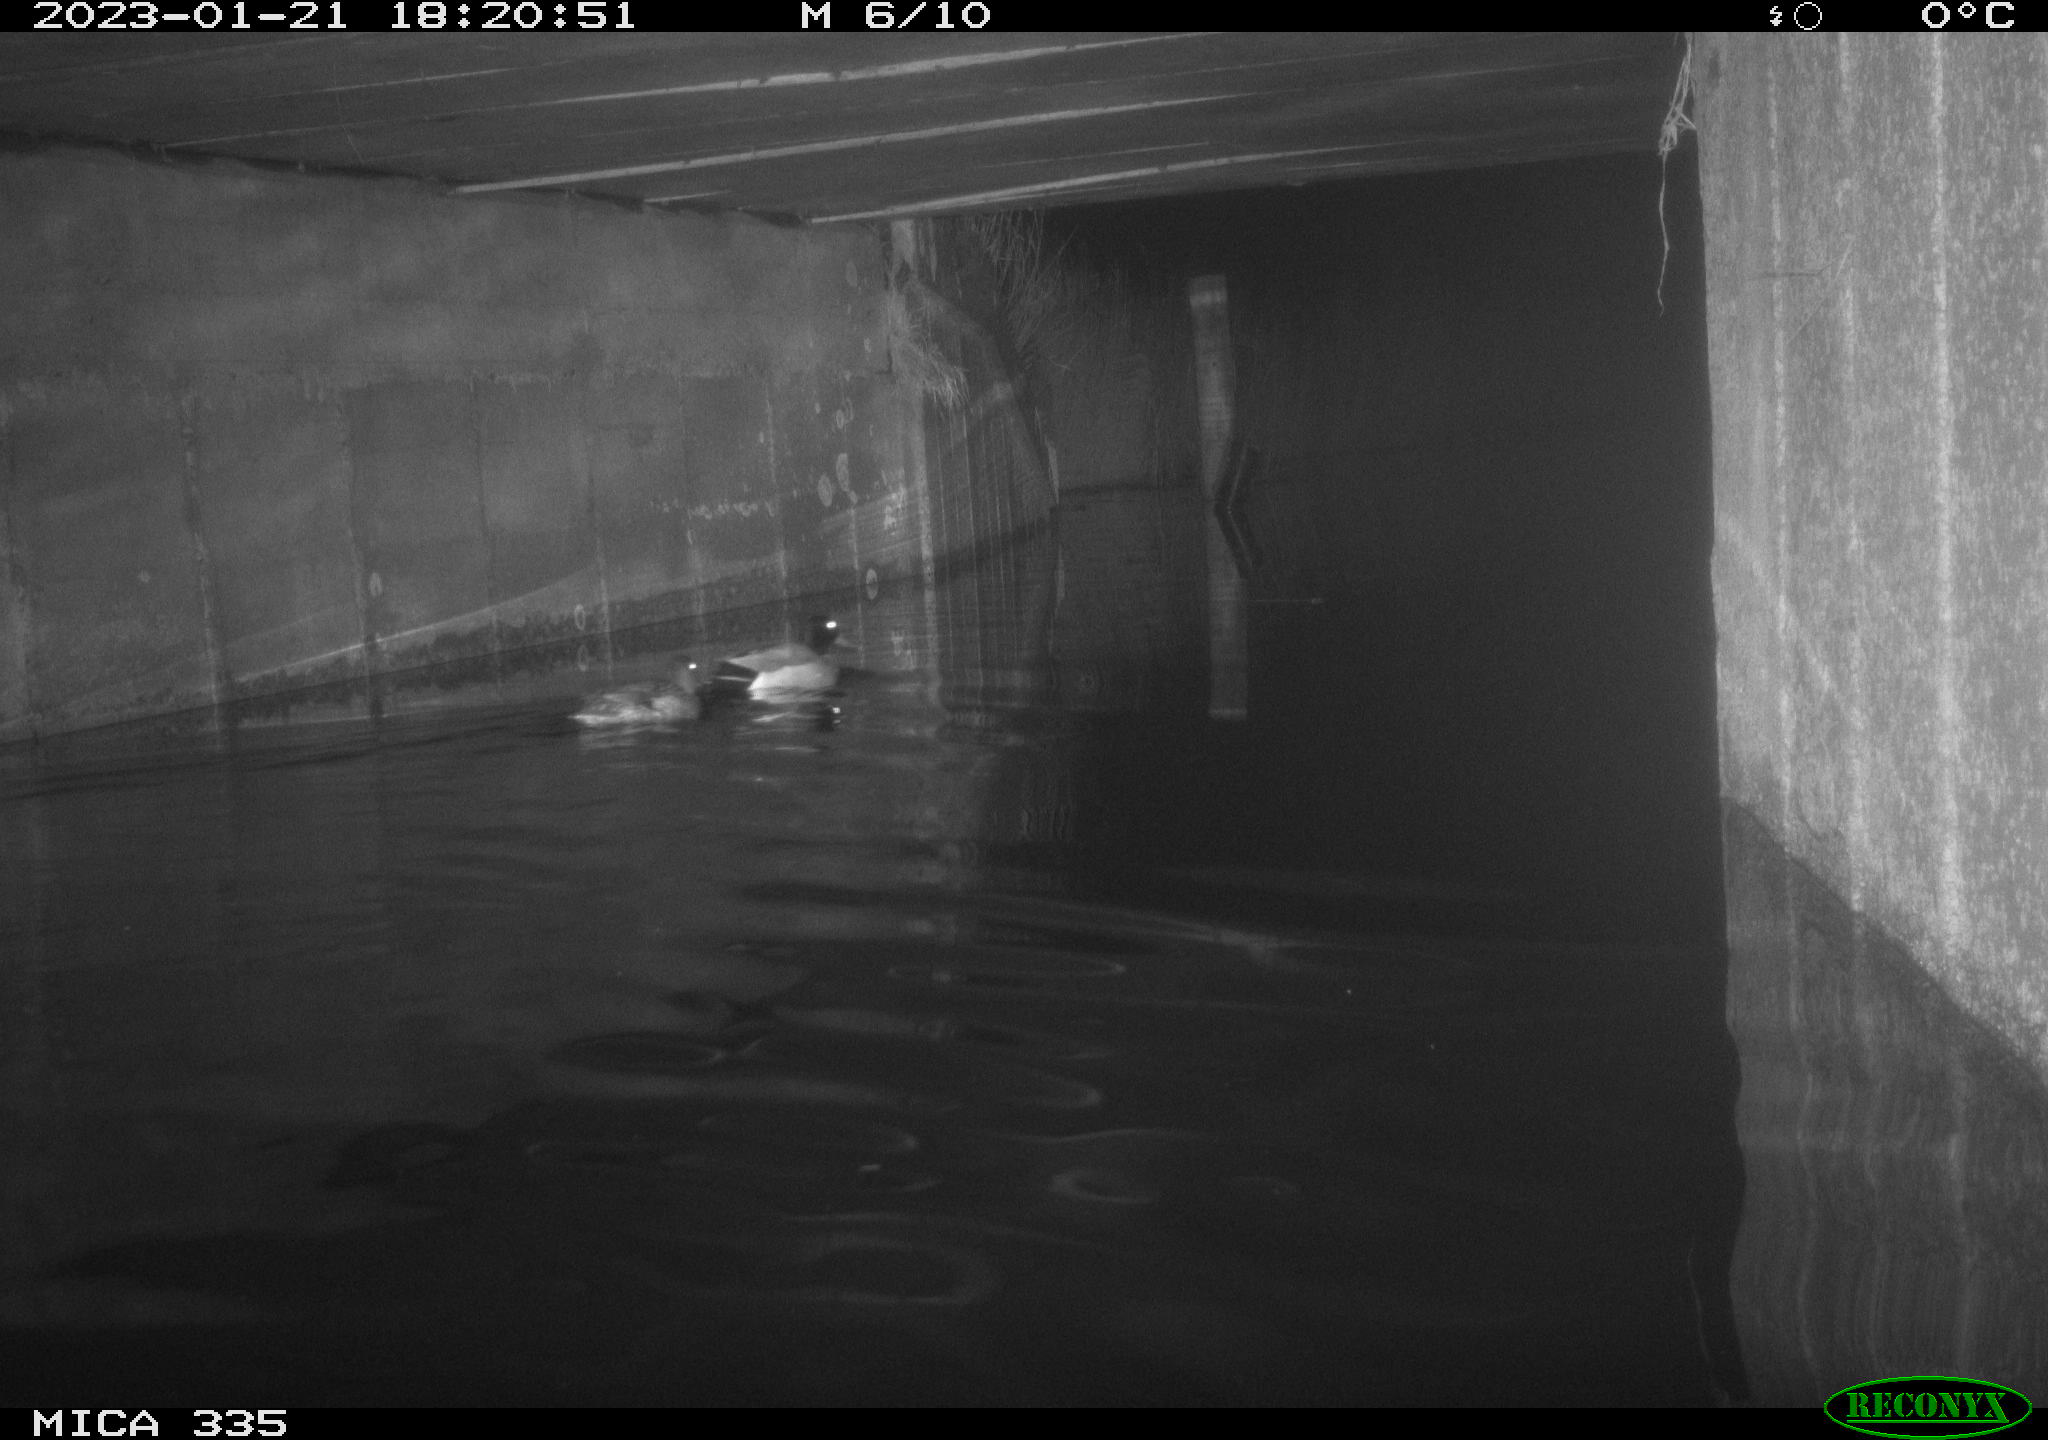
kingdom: Animalia
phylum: Chordata
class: Aves
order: Anseriformes
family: Anatidae
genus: Anas
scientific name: Anas
